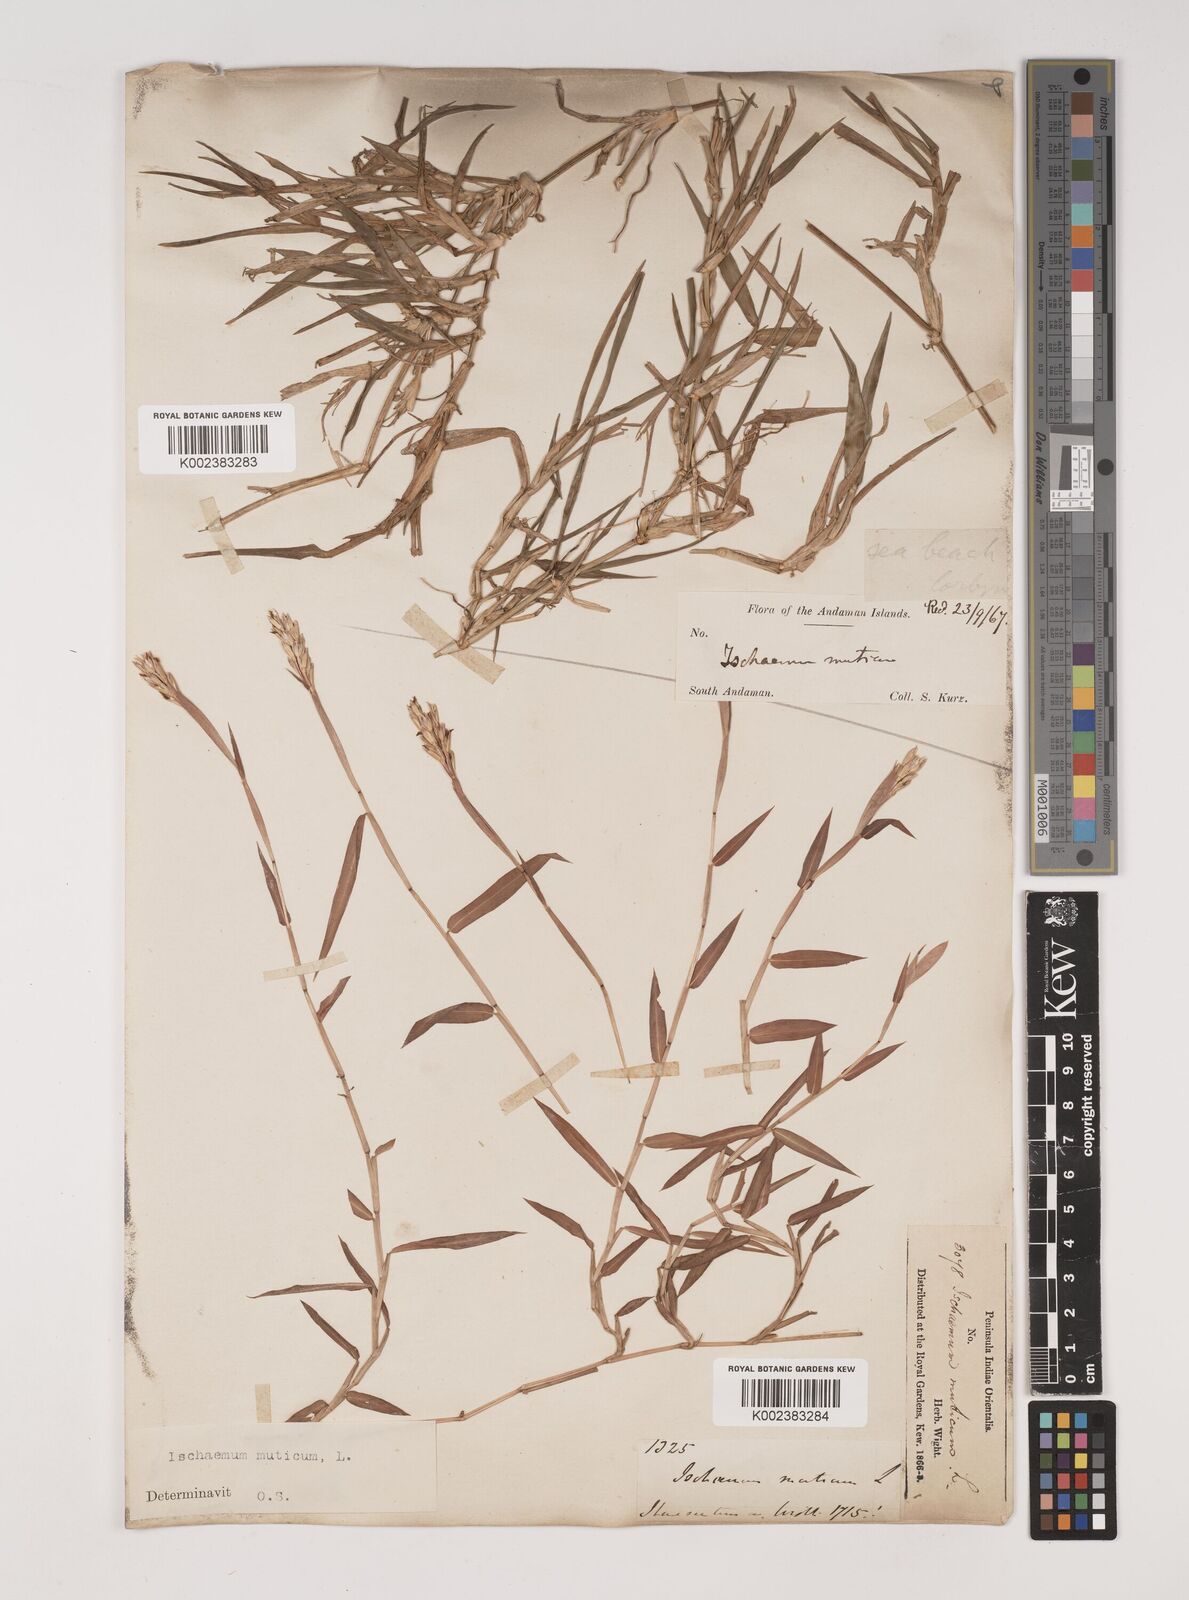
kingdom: Plantae
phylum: Tracheophyta
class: Liliopsida
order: Poales
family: Poaceae
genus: Ischaemum
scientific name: Ischaemum muticum
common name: Drought grass
